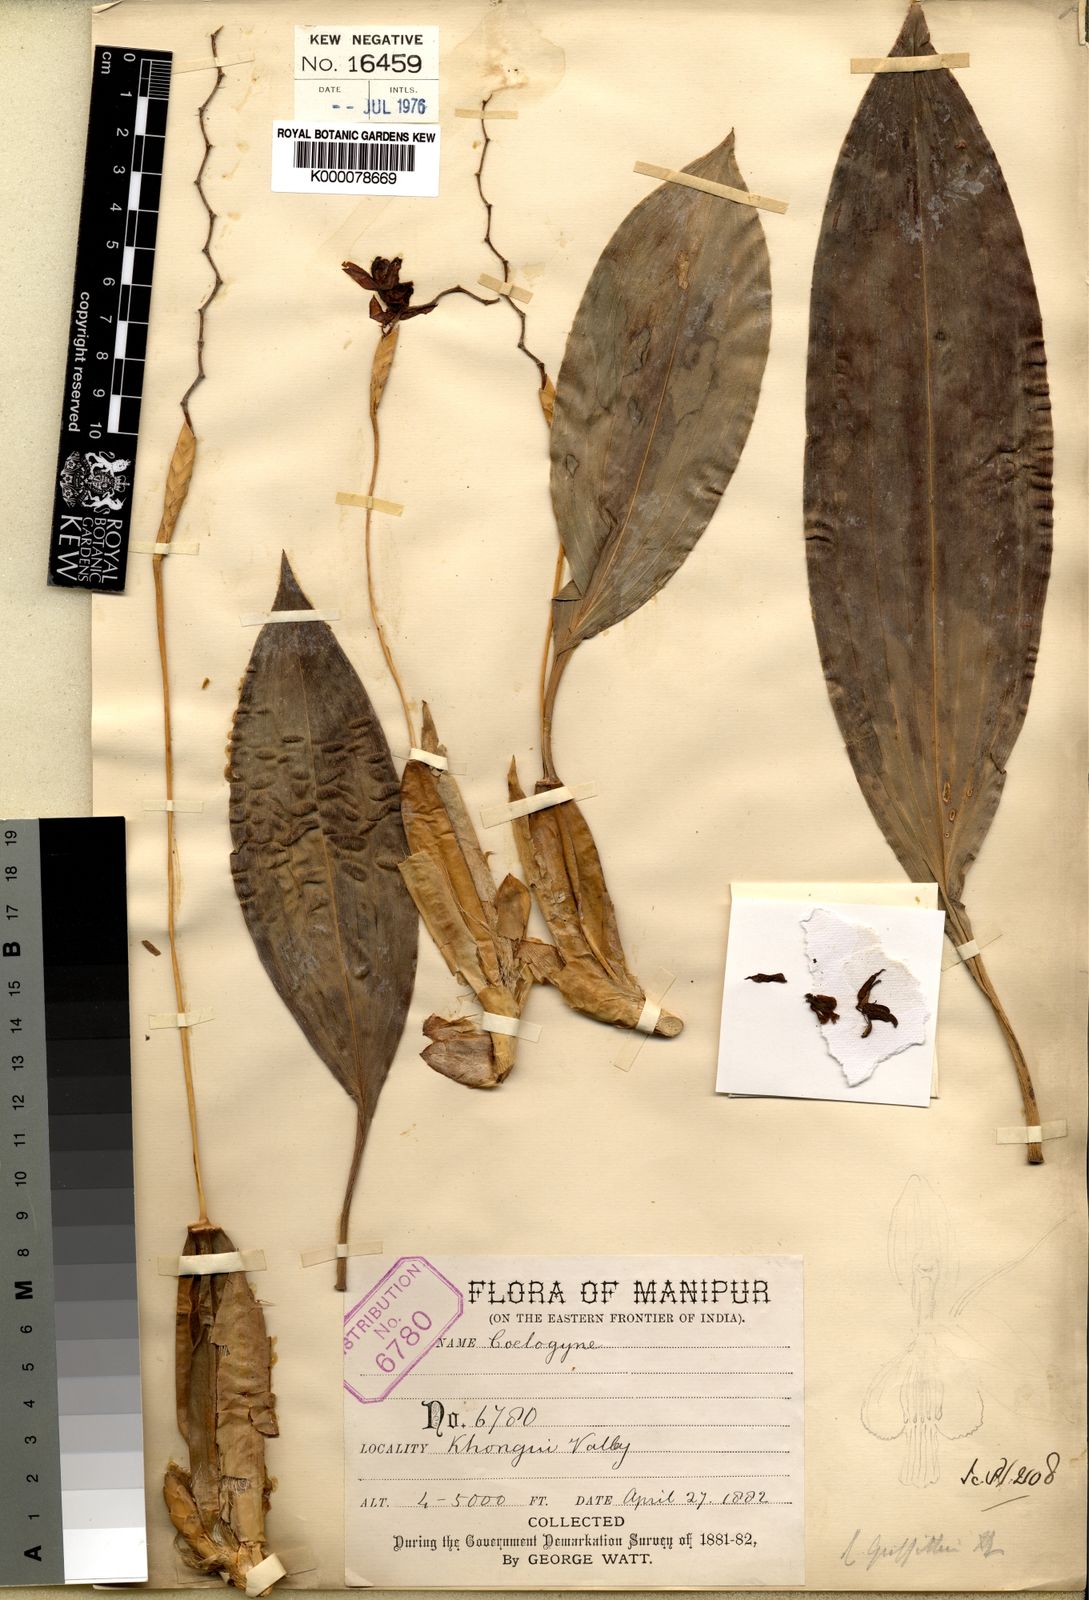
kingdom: Plantae
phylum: Tracheophyta
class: Liliopsida
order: Asparagales
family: Orchidaceae
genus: Coelogyne
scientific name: Coelogyne griffithii
